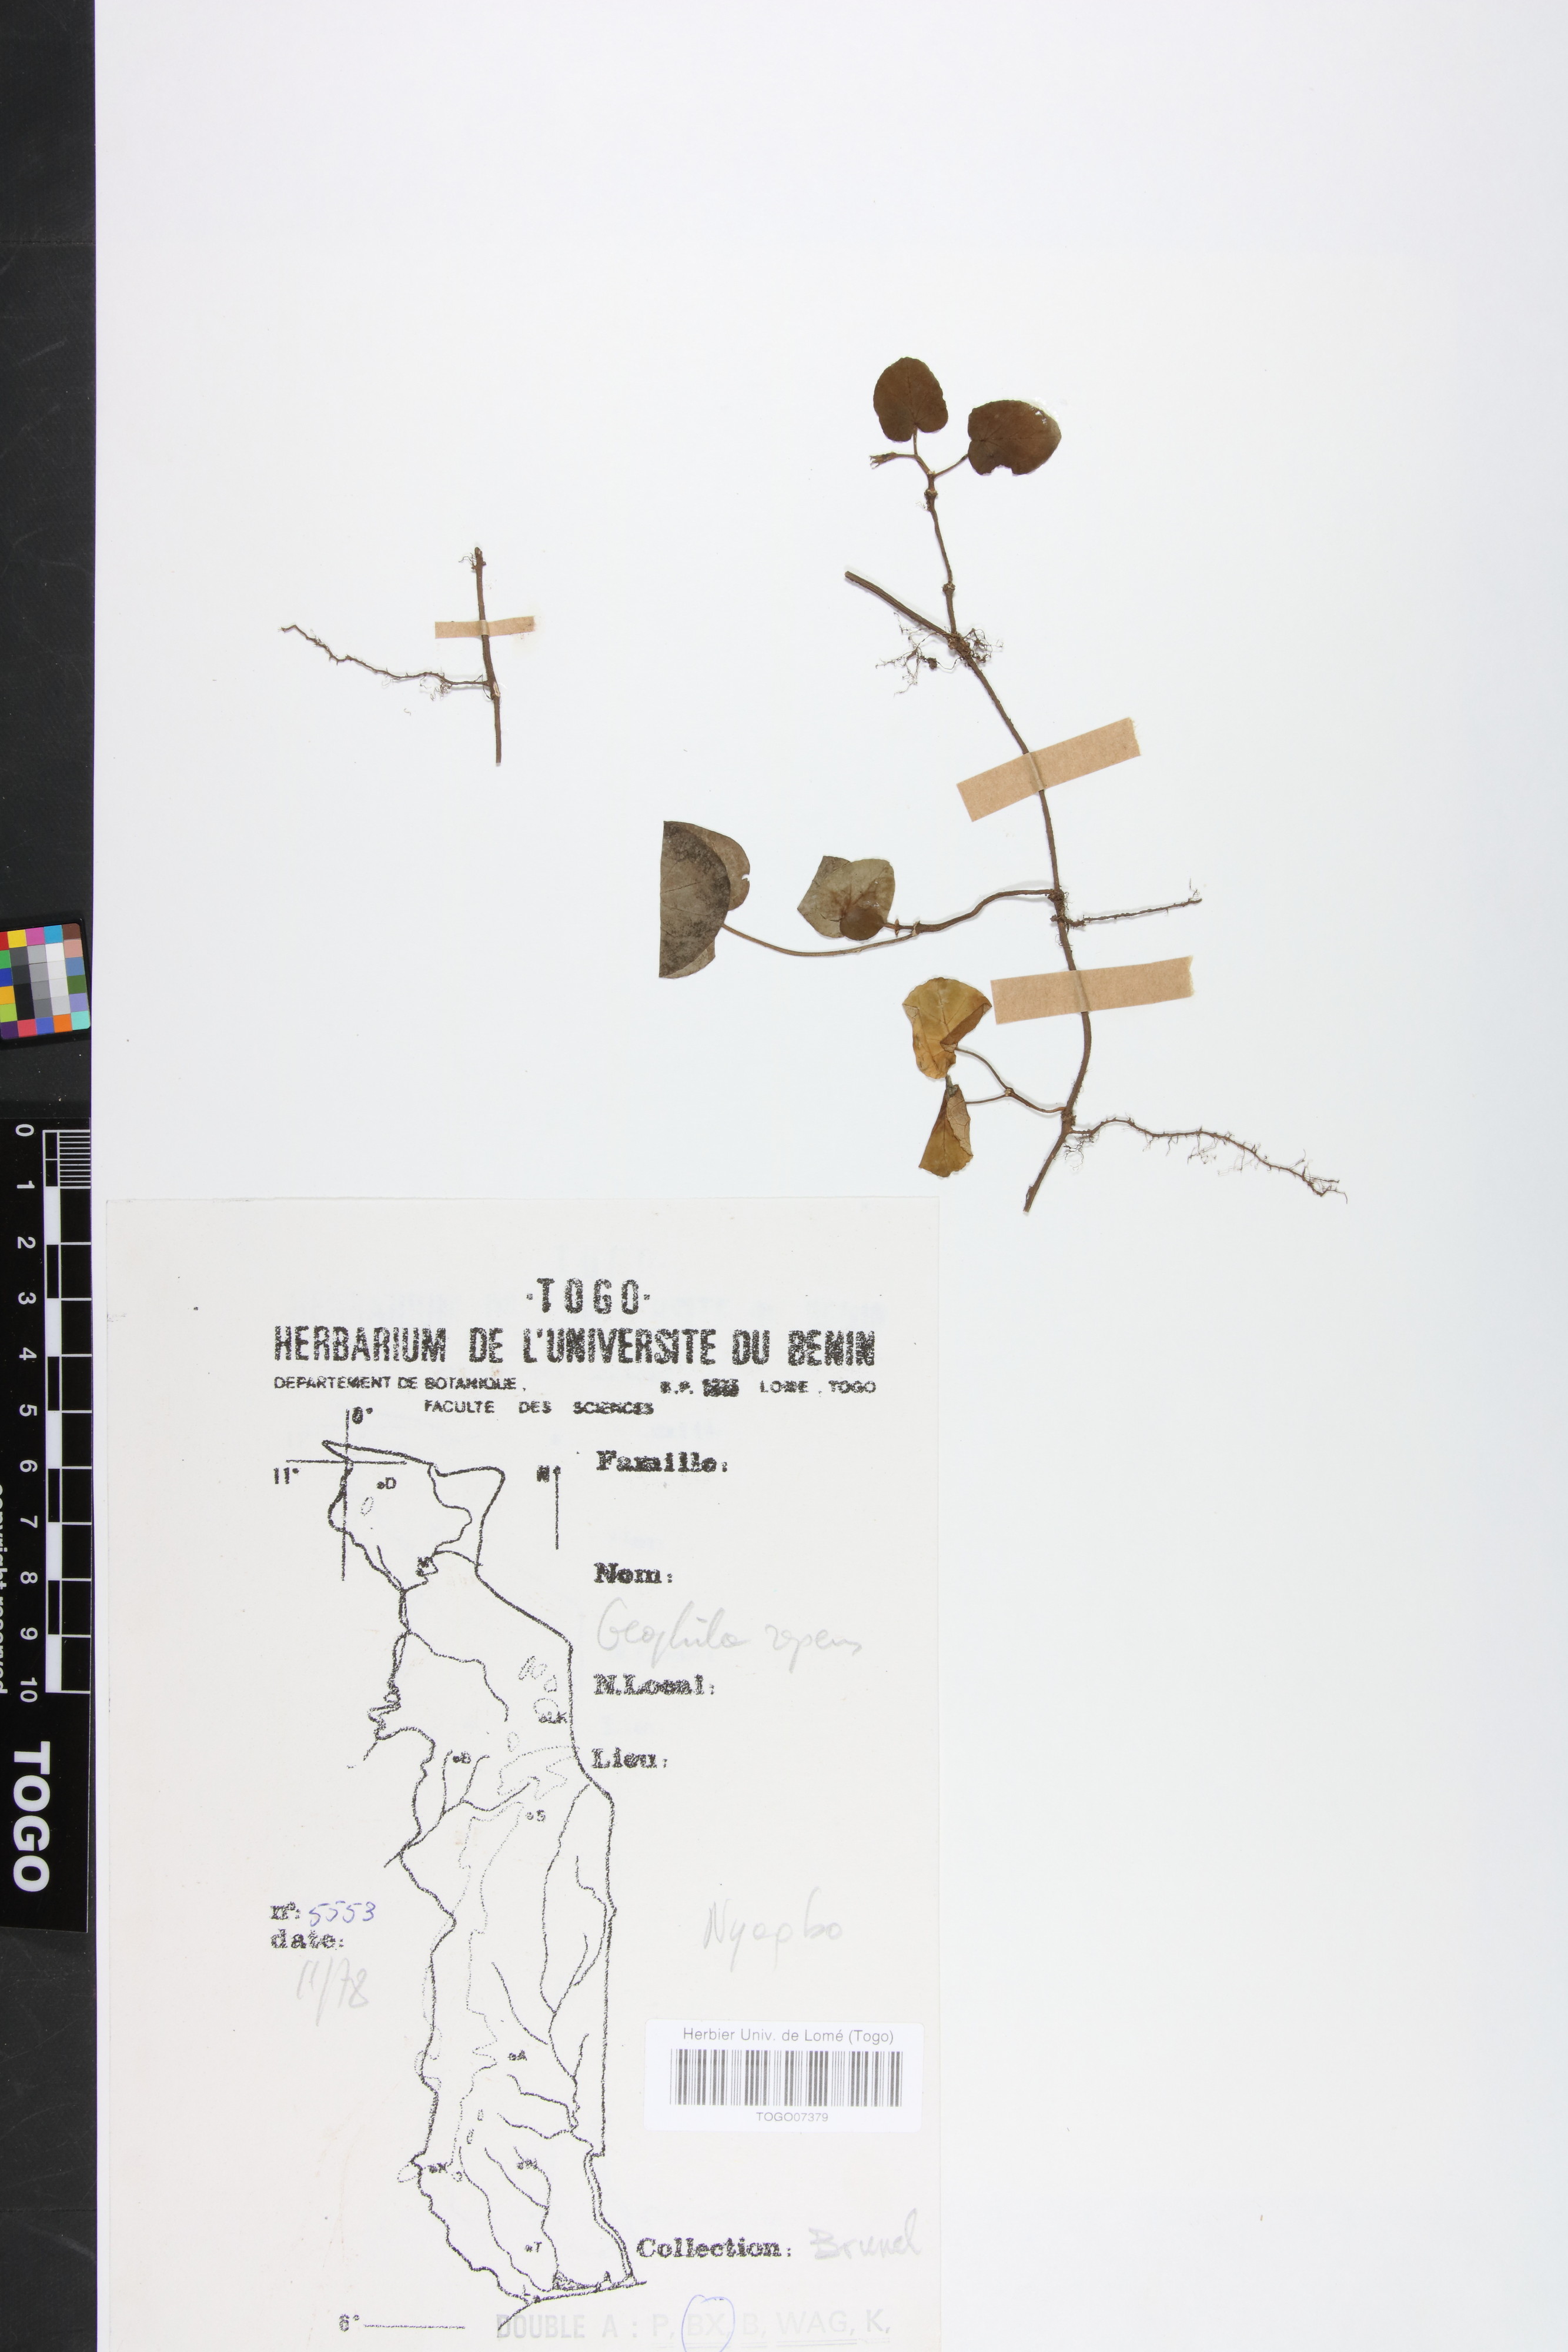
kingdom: Plantae
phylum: Tracheophyta
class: Magnoliopsida
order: Gentianales
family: Rubiaceae
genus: Geophila
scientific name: Geophila repens
